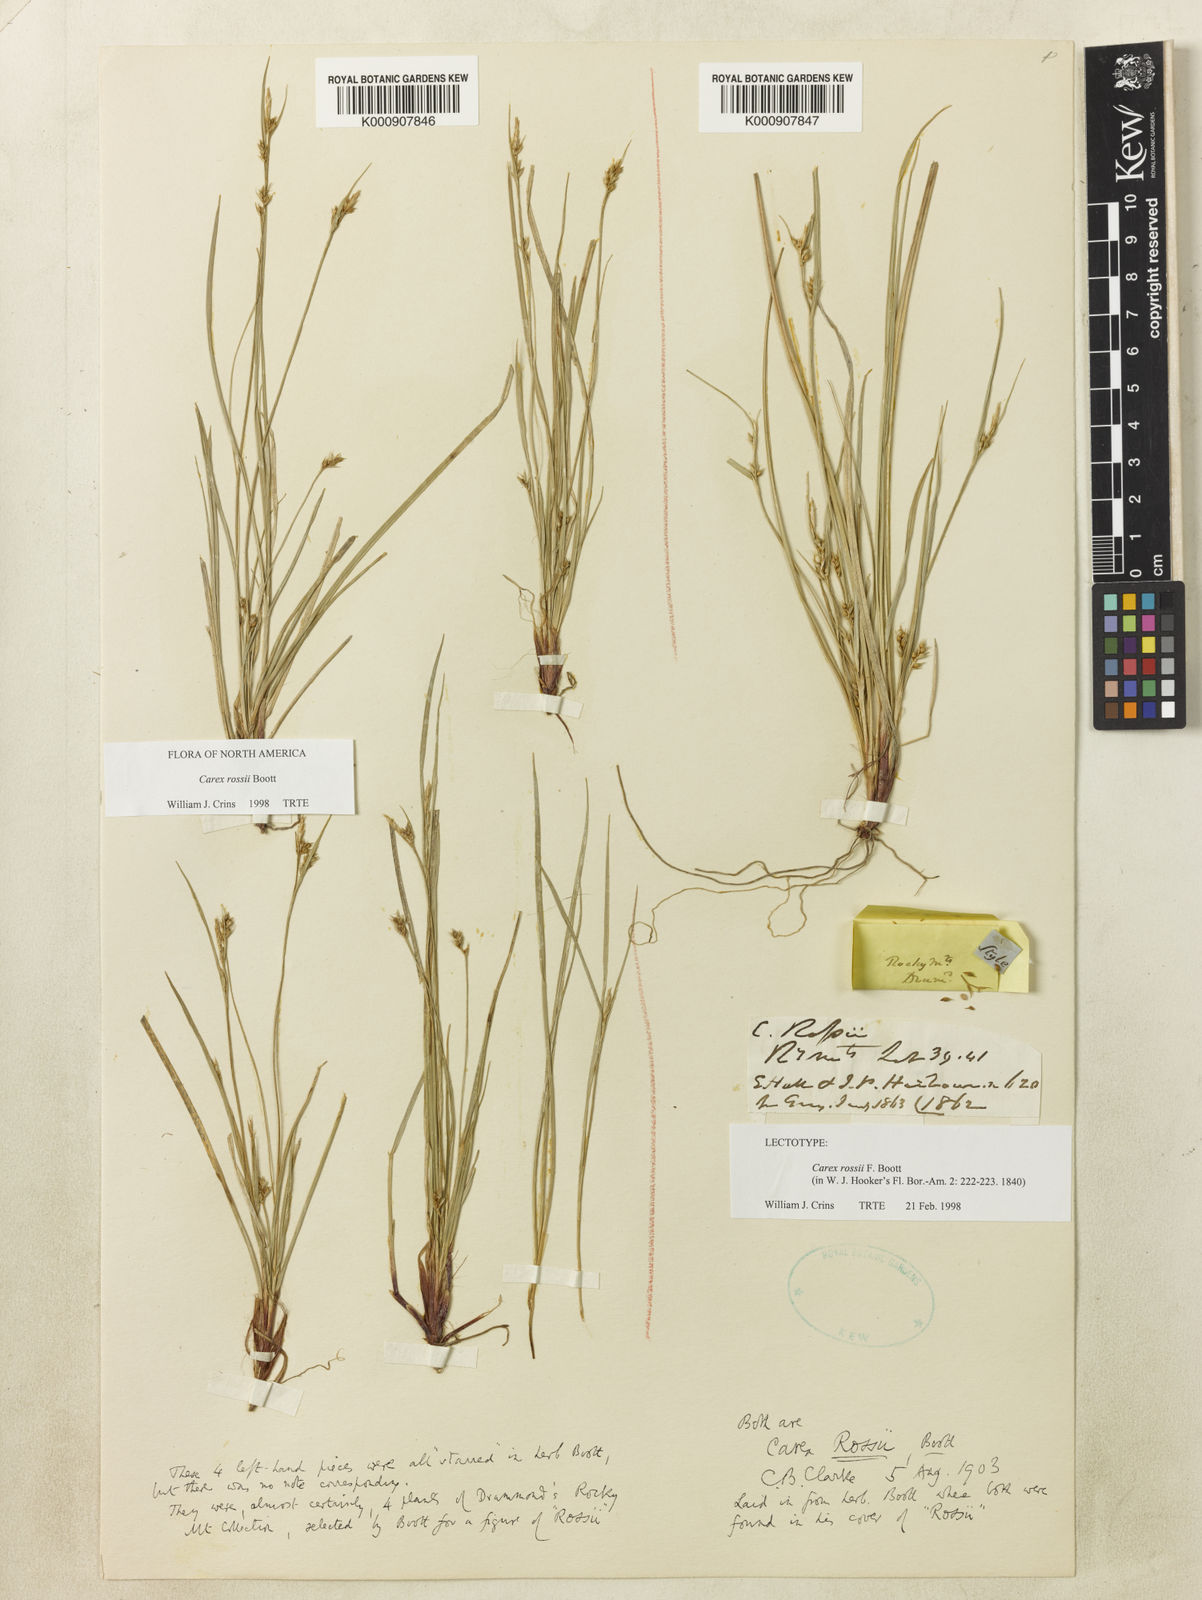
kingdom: Plantae
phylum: Tracheophyta
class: Liliopsida
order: Poales
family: Cyperaceae
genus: Carex
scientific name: Carex rossii
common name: Ross' sedge
